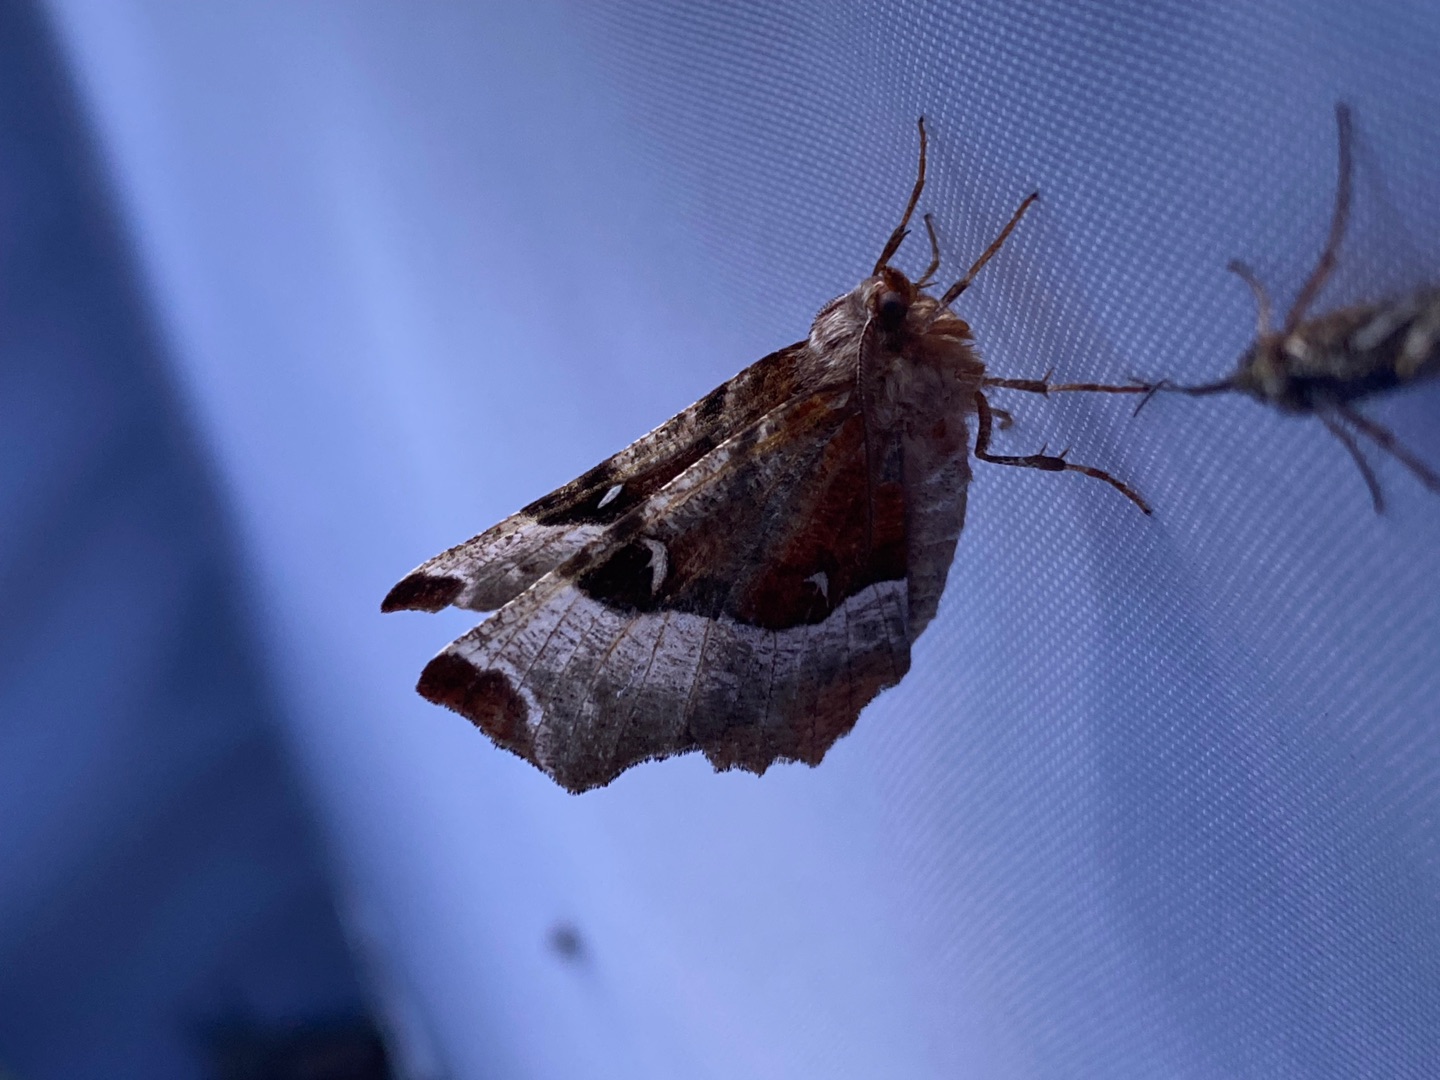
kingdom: Animalia
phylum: Arthropoda
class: Insecta
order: Lepidoptera
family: Geometridae
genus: Selenia
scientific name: Selenia tetralunaria
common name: Purpurbrun månemåler
